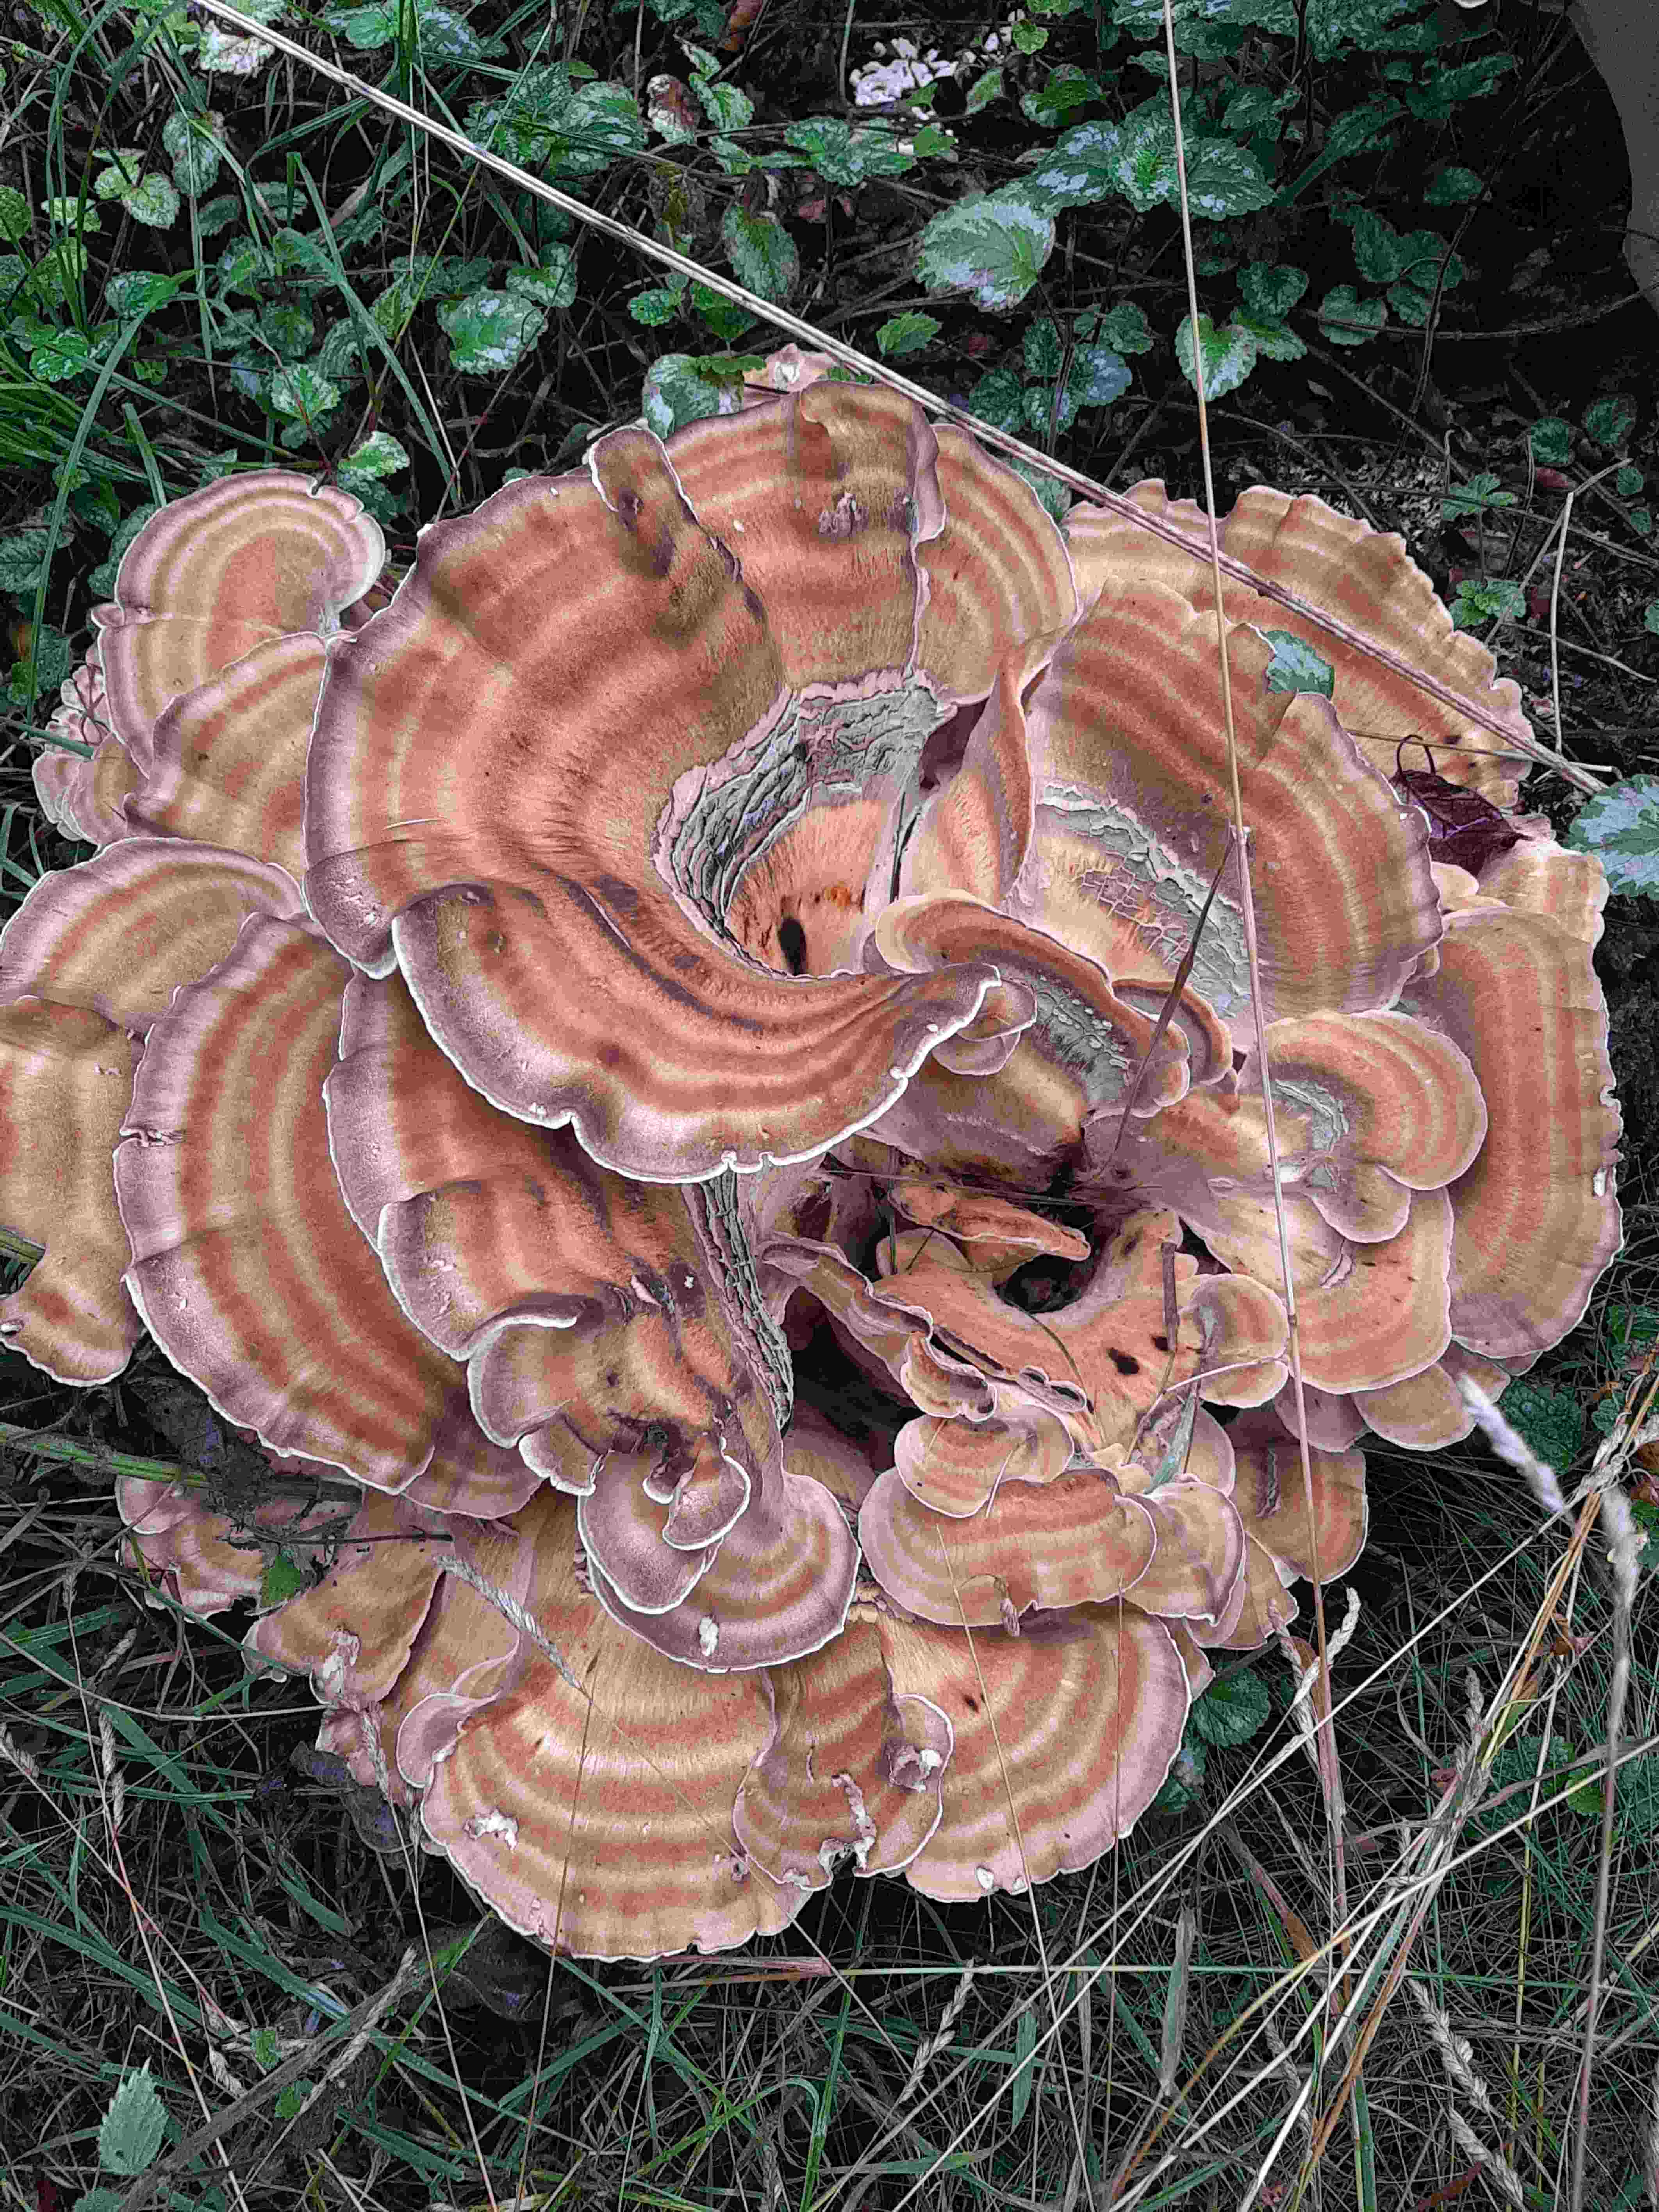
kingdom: Fungi
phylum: Basidiomycota
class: Agaricomycetes
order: Polyporales
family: Meripilaceae
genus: Meripilus
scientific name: Meripilus giganteus
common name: kæmpeporesvamp
